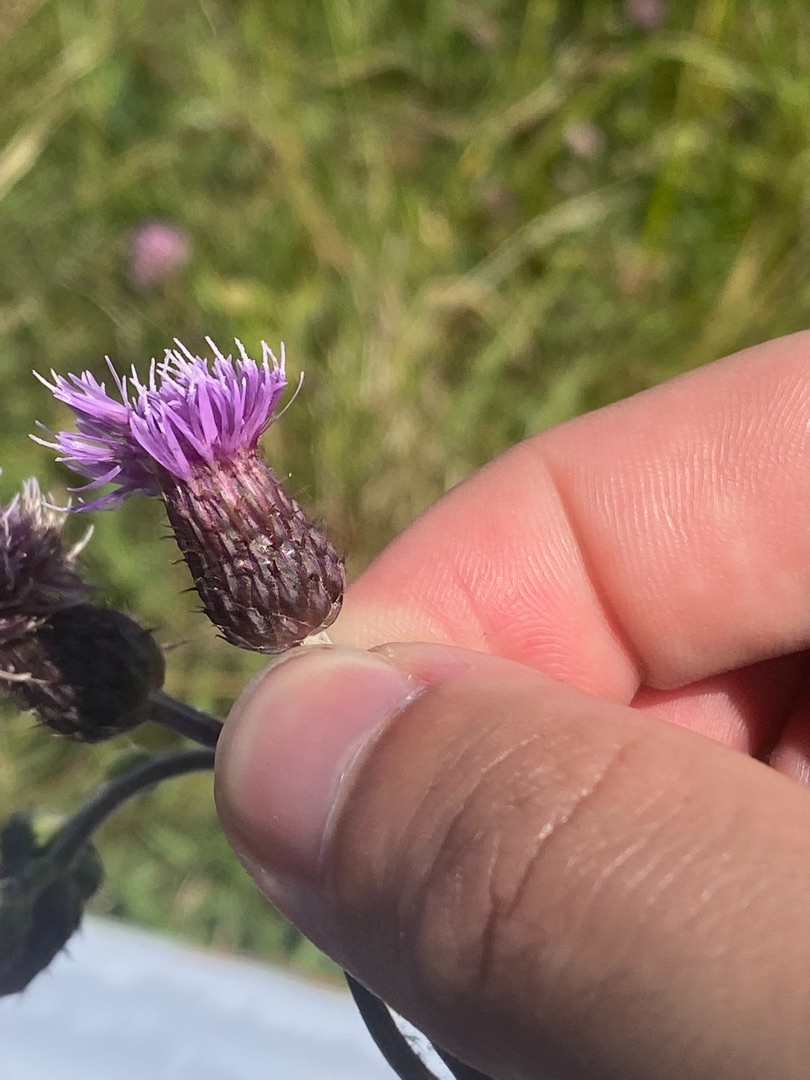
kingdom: Plantae
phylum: Tracheophyta
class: Magnoliopsida
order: Asterales
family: Asteraceae
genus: Cirsium
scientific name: Cirsium arvense
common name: Ager-tidsel
